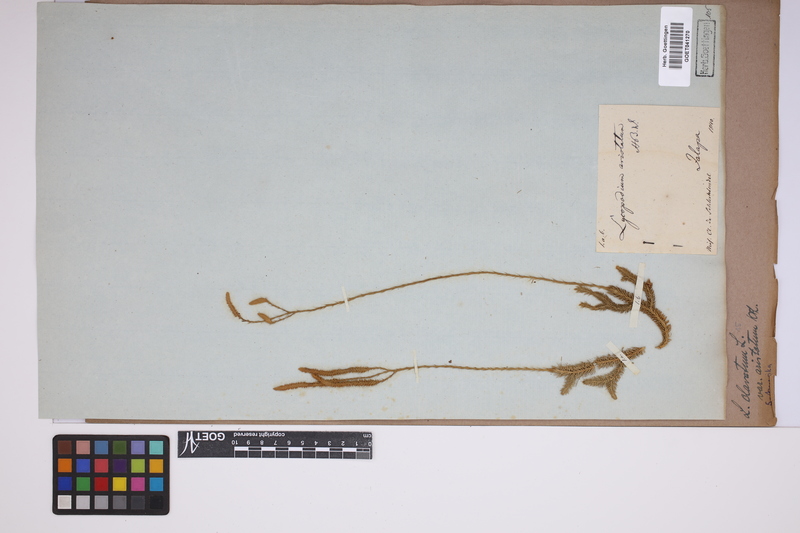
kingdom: Plantae
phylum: Tracheophyta
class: Lycopodiopsida
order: Lycopodiales
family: Lycopodiaceae
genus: Lycopodium
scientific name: Lycopodium clavatum
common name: Stag's-horn clubmoss
